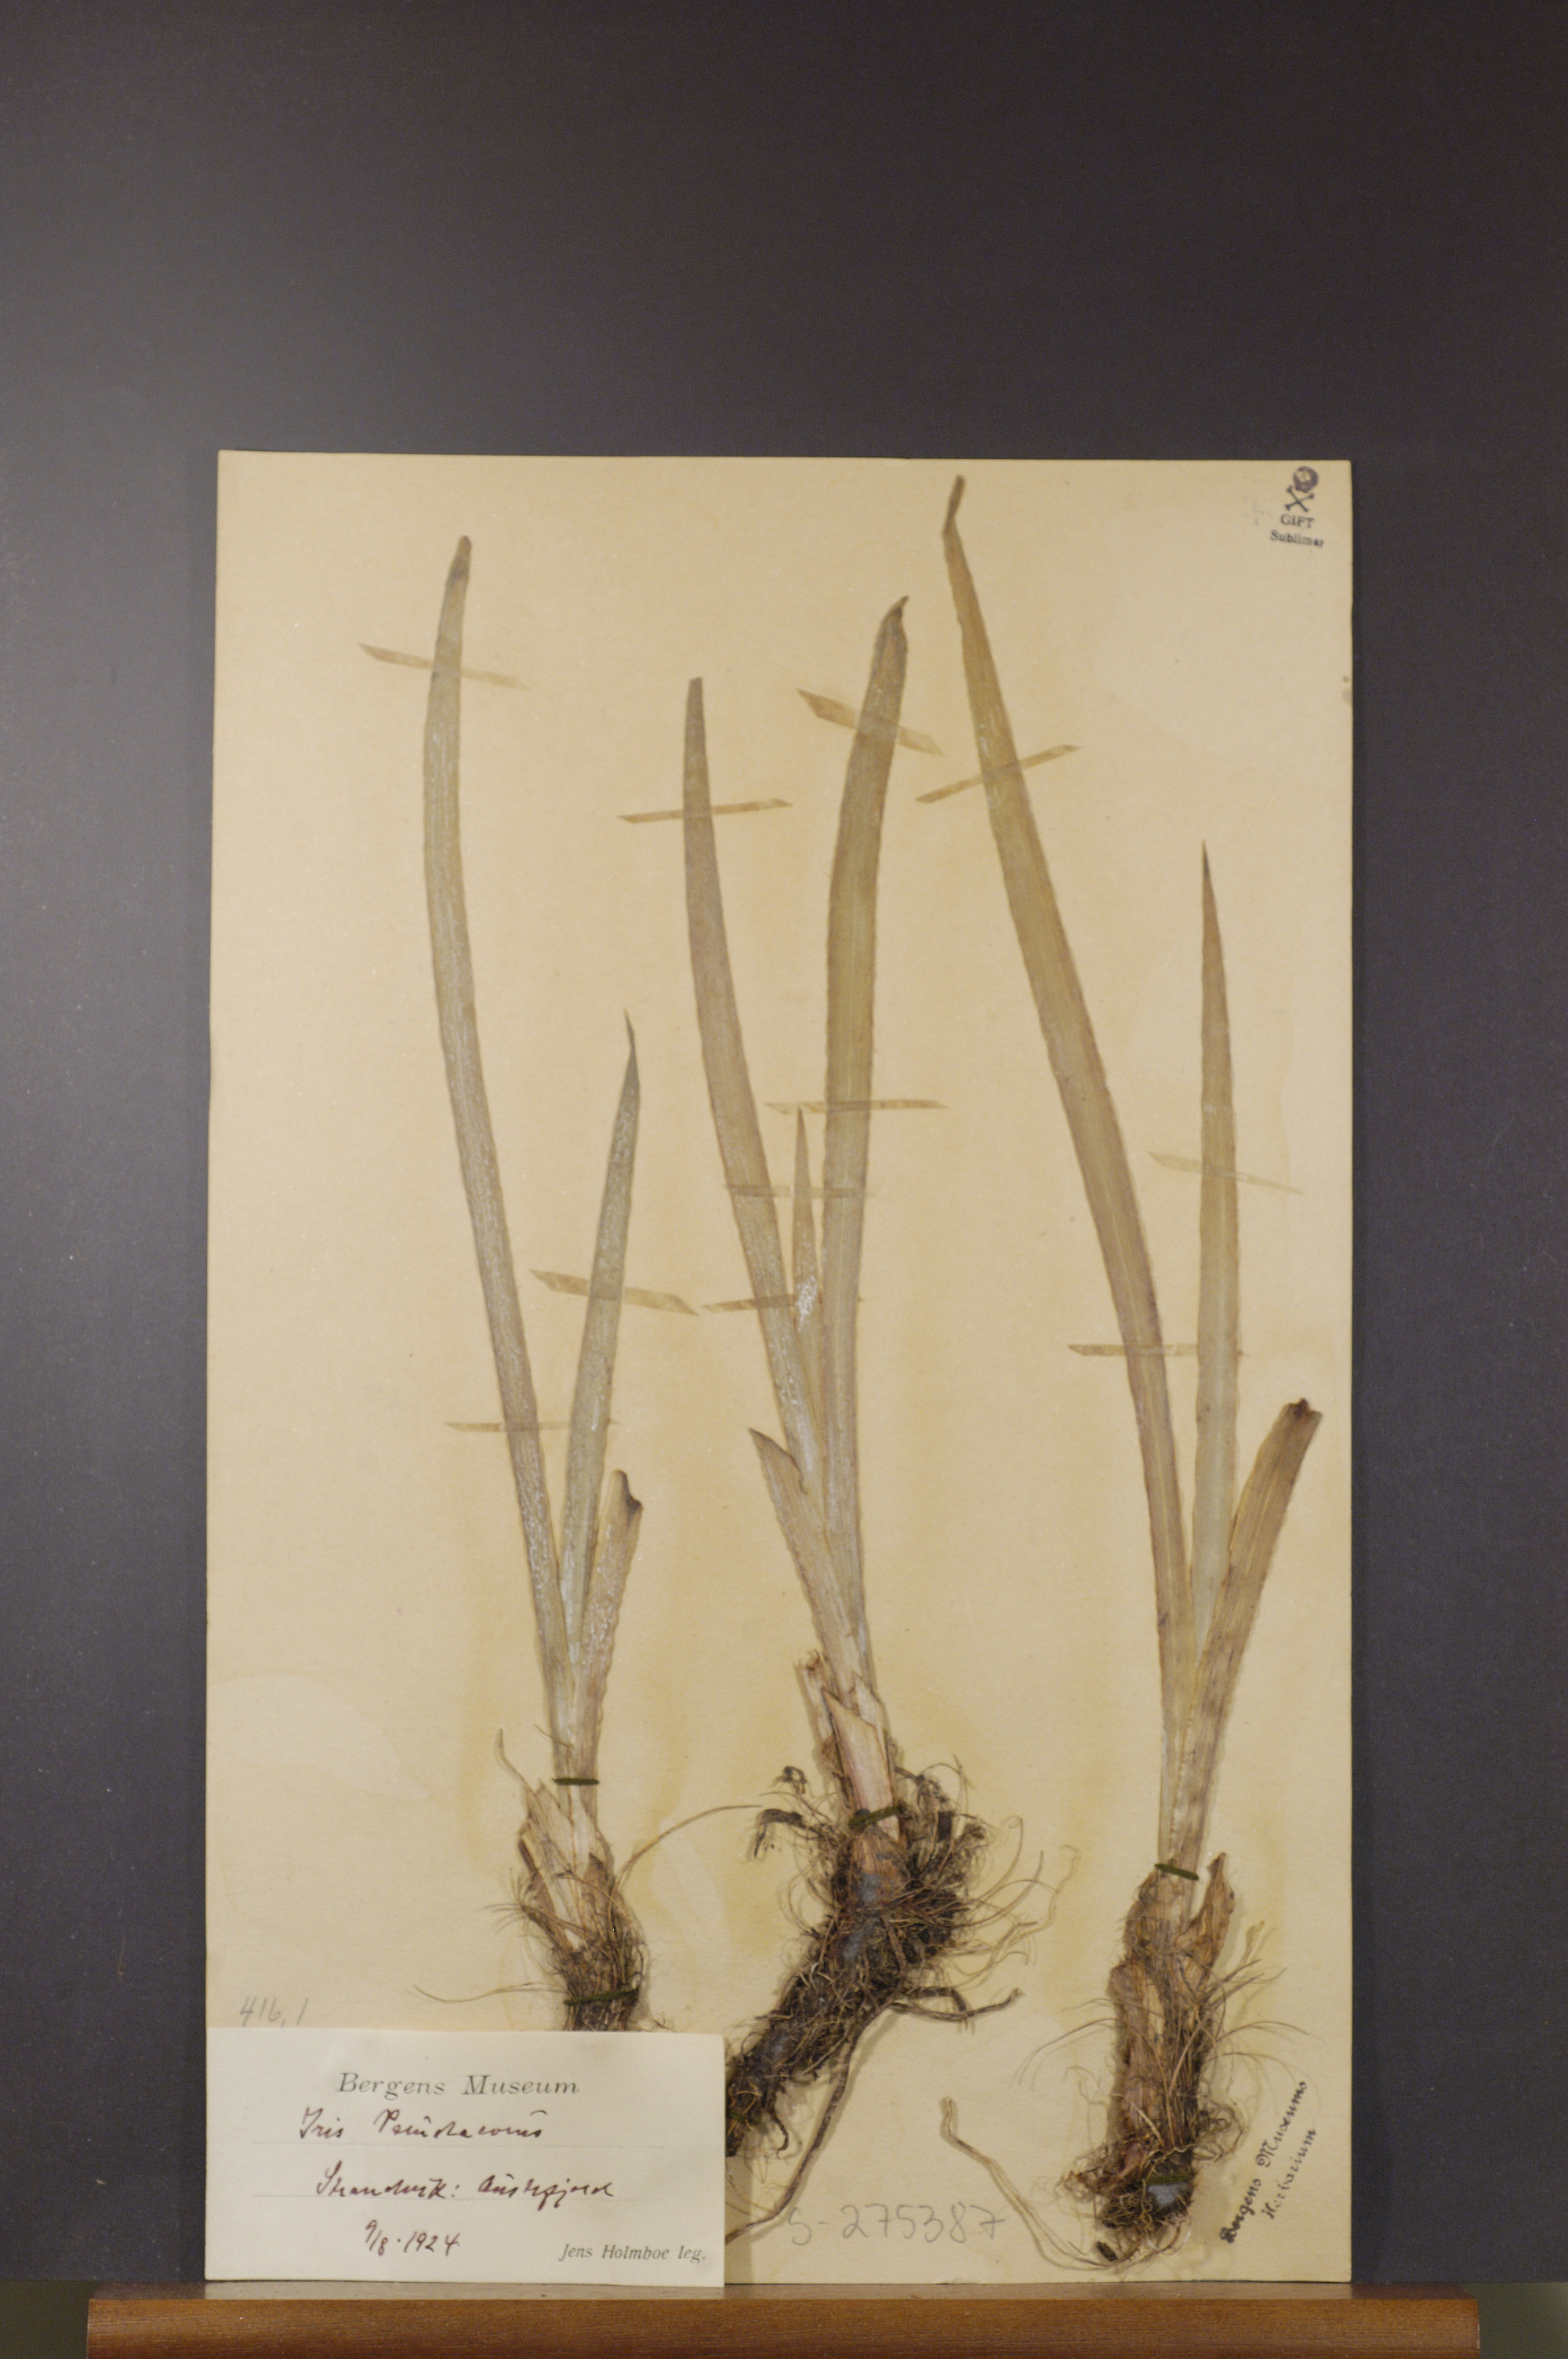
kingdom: Plantae
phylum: Tracheophyta
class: Liliopsida
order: Asparagales
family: Iridaceae
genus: Iris
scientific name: Iris pseudacorus
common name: Yellow flag
